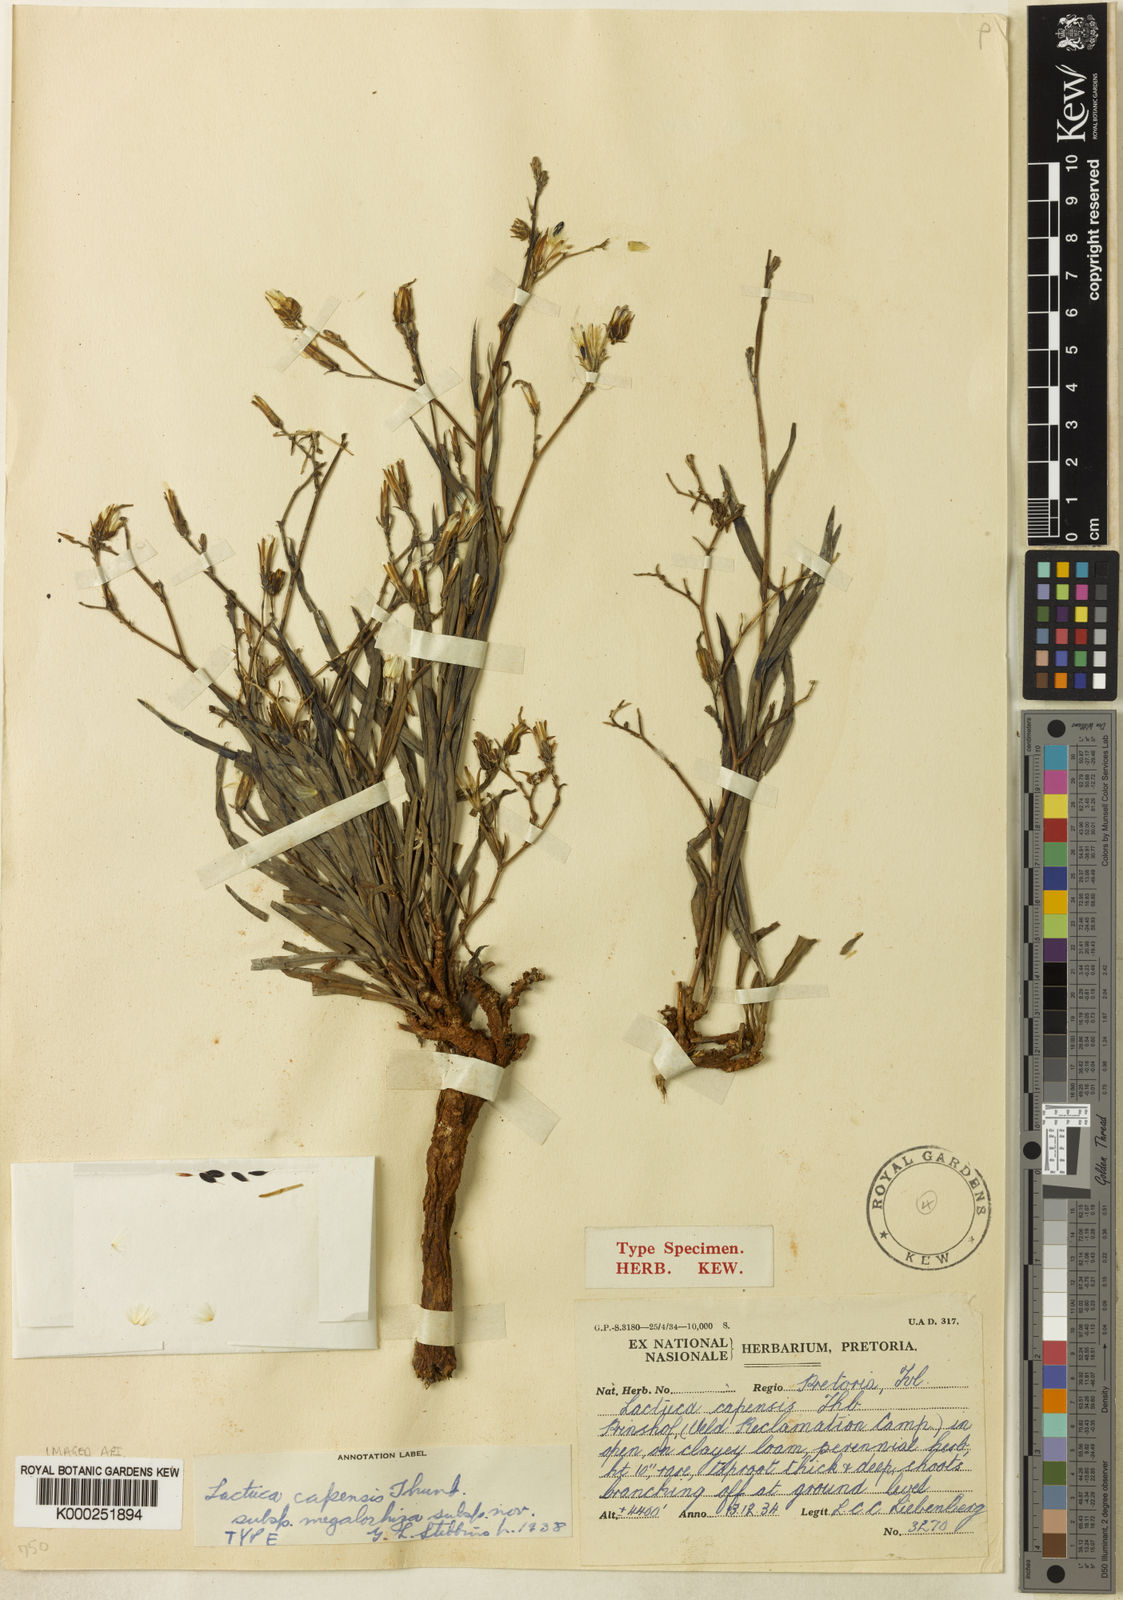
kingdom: Plantae
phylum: Tracheophyta
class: Magnoliopsida
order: Asterales
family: Asteraceae
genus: Lactuca
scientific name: Lactuca inermis
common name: Wild lettuce
